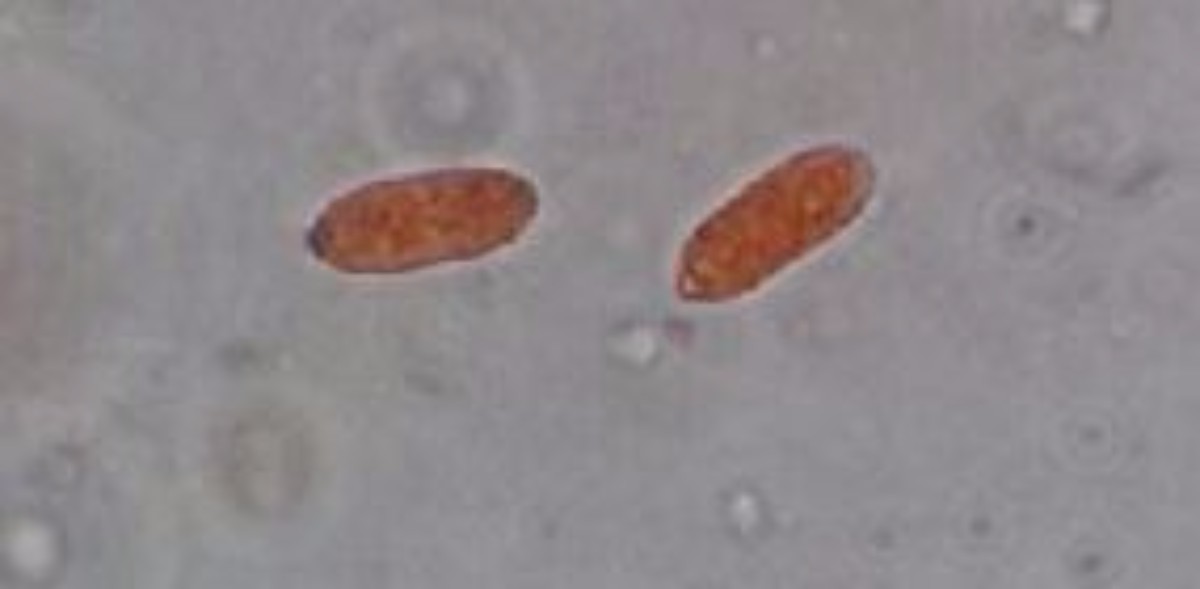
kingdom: Fungi
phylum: Basidiomycota
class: Dacrymycetes
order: Dacrymycetales
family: Dacrymycetaceae
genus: Dacrymyces
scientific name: Dacrymyces minor
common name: lille tåresvamp
